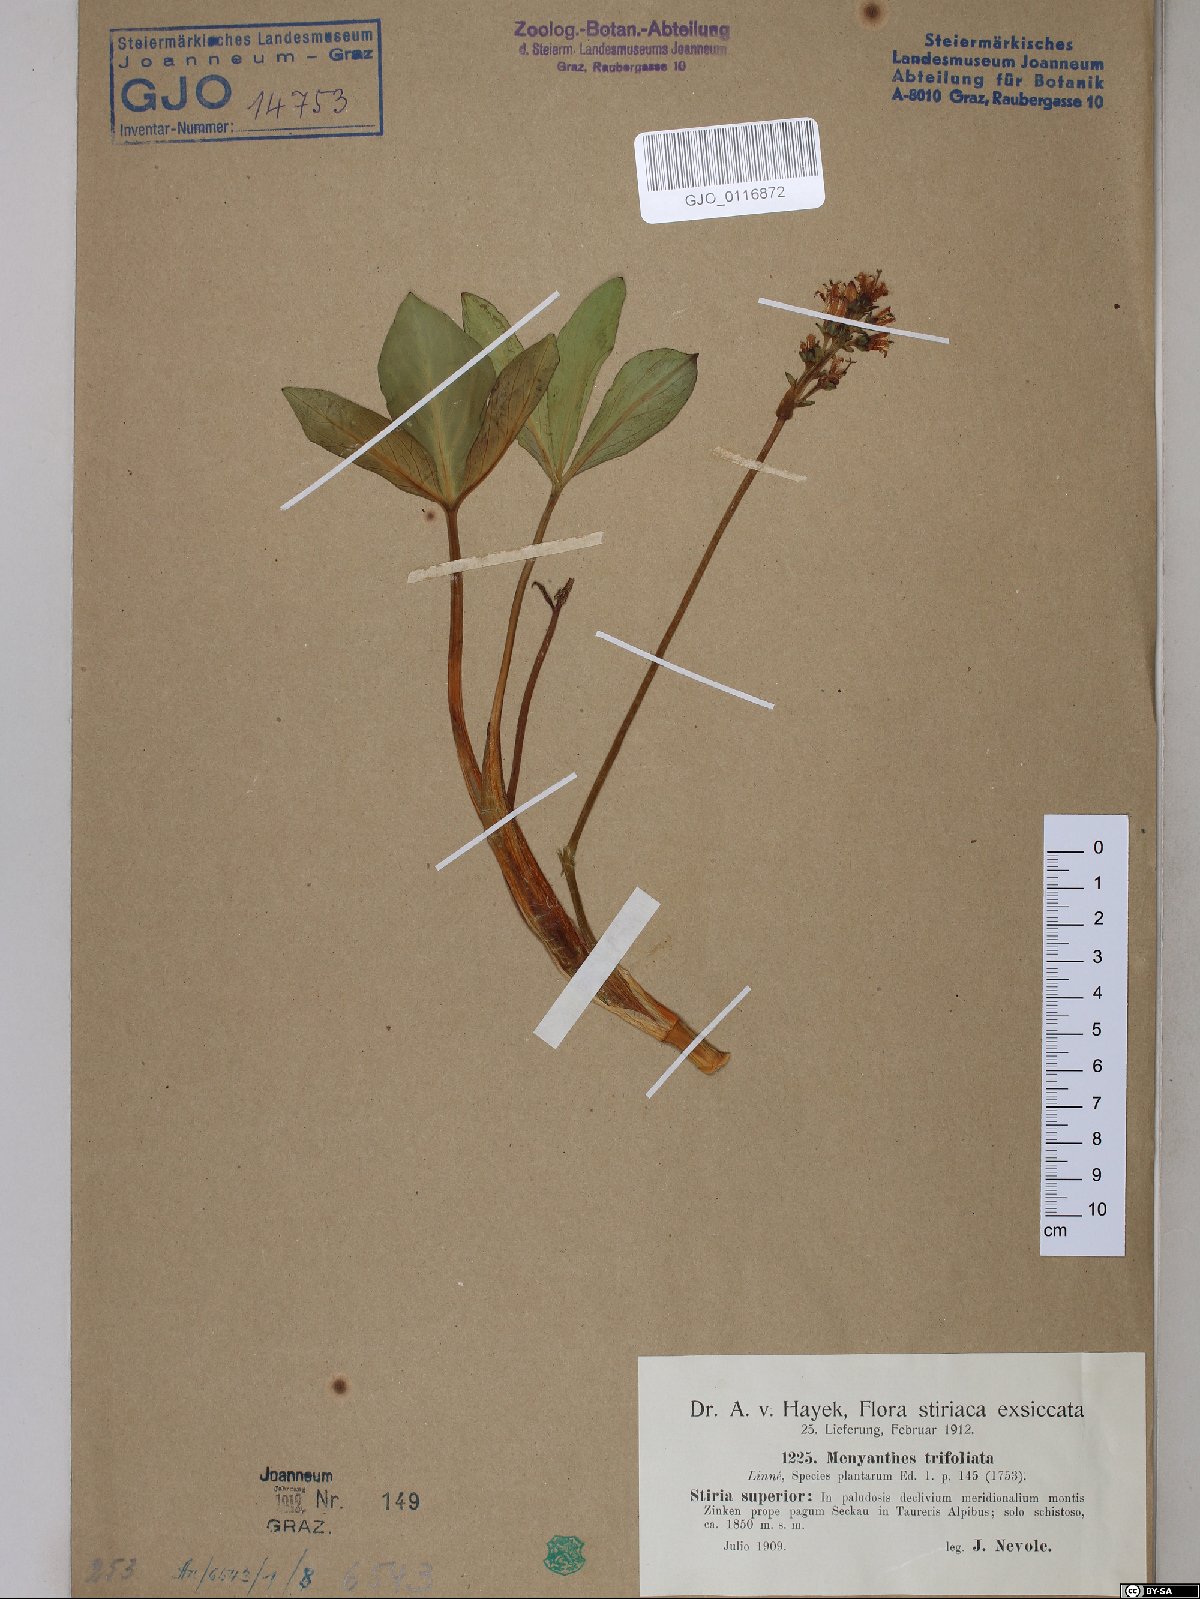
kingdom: Plantae
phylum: Tracheophyta
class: Magnoliopsida
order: Asterales
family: Menyanthaceae
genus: Menyanthes
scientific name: Menyanthes trifoliata
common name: Bogbean
